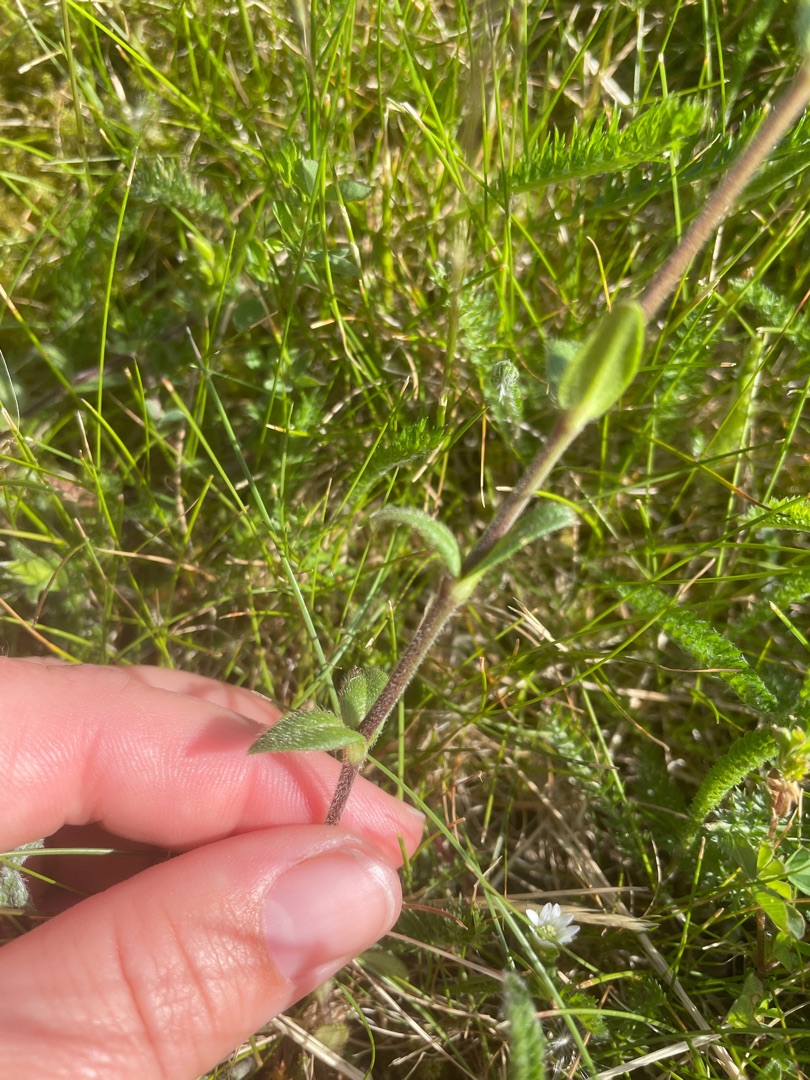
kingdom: Plantae
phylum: Tracheophyta
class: Magnoliopsida
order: Caryophyllales
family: Caryophyllaceae
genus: Cerastium
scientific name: Cerastium fontanum
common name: Almindelig hønsetarm
